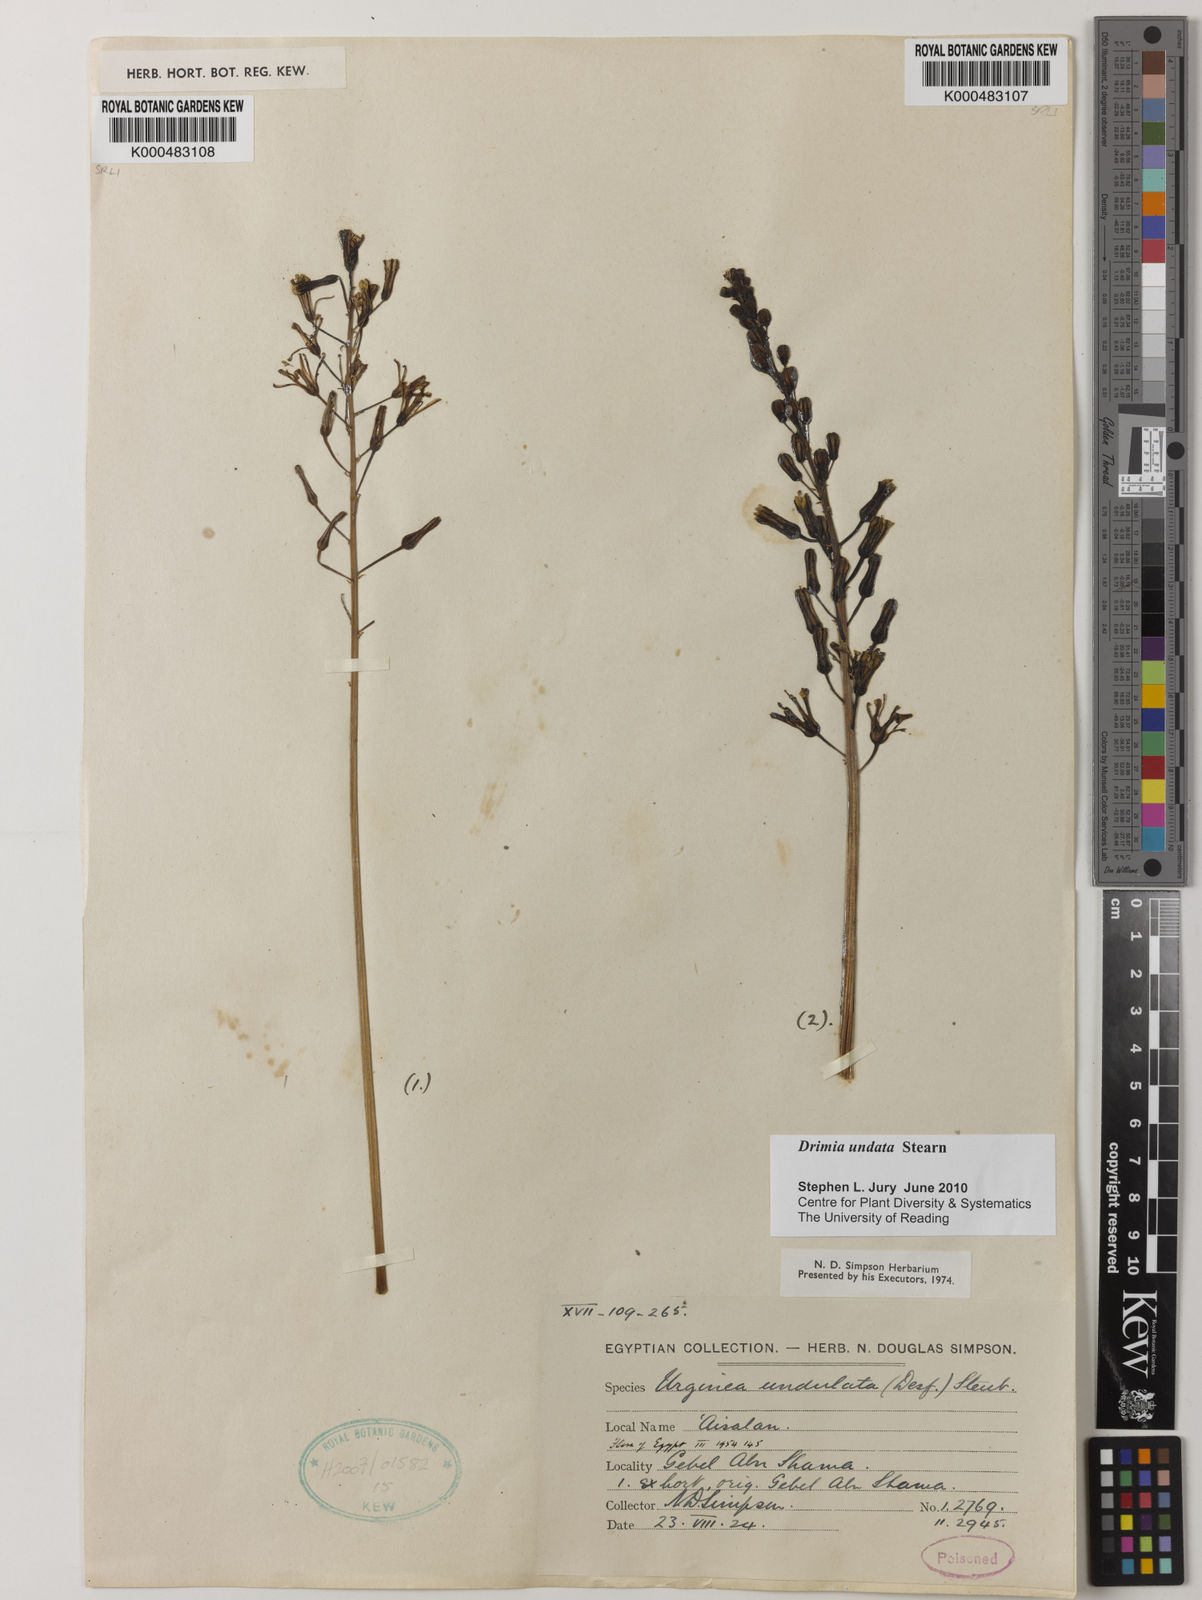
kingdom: Plantae
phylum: Tracheophyta
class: Liliopsida
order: Asparagales
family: Asparagaceae
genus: Drimia
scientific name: Drimia purpurascens
